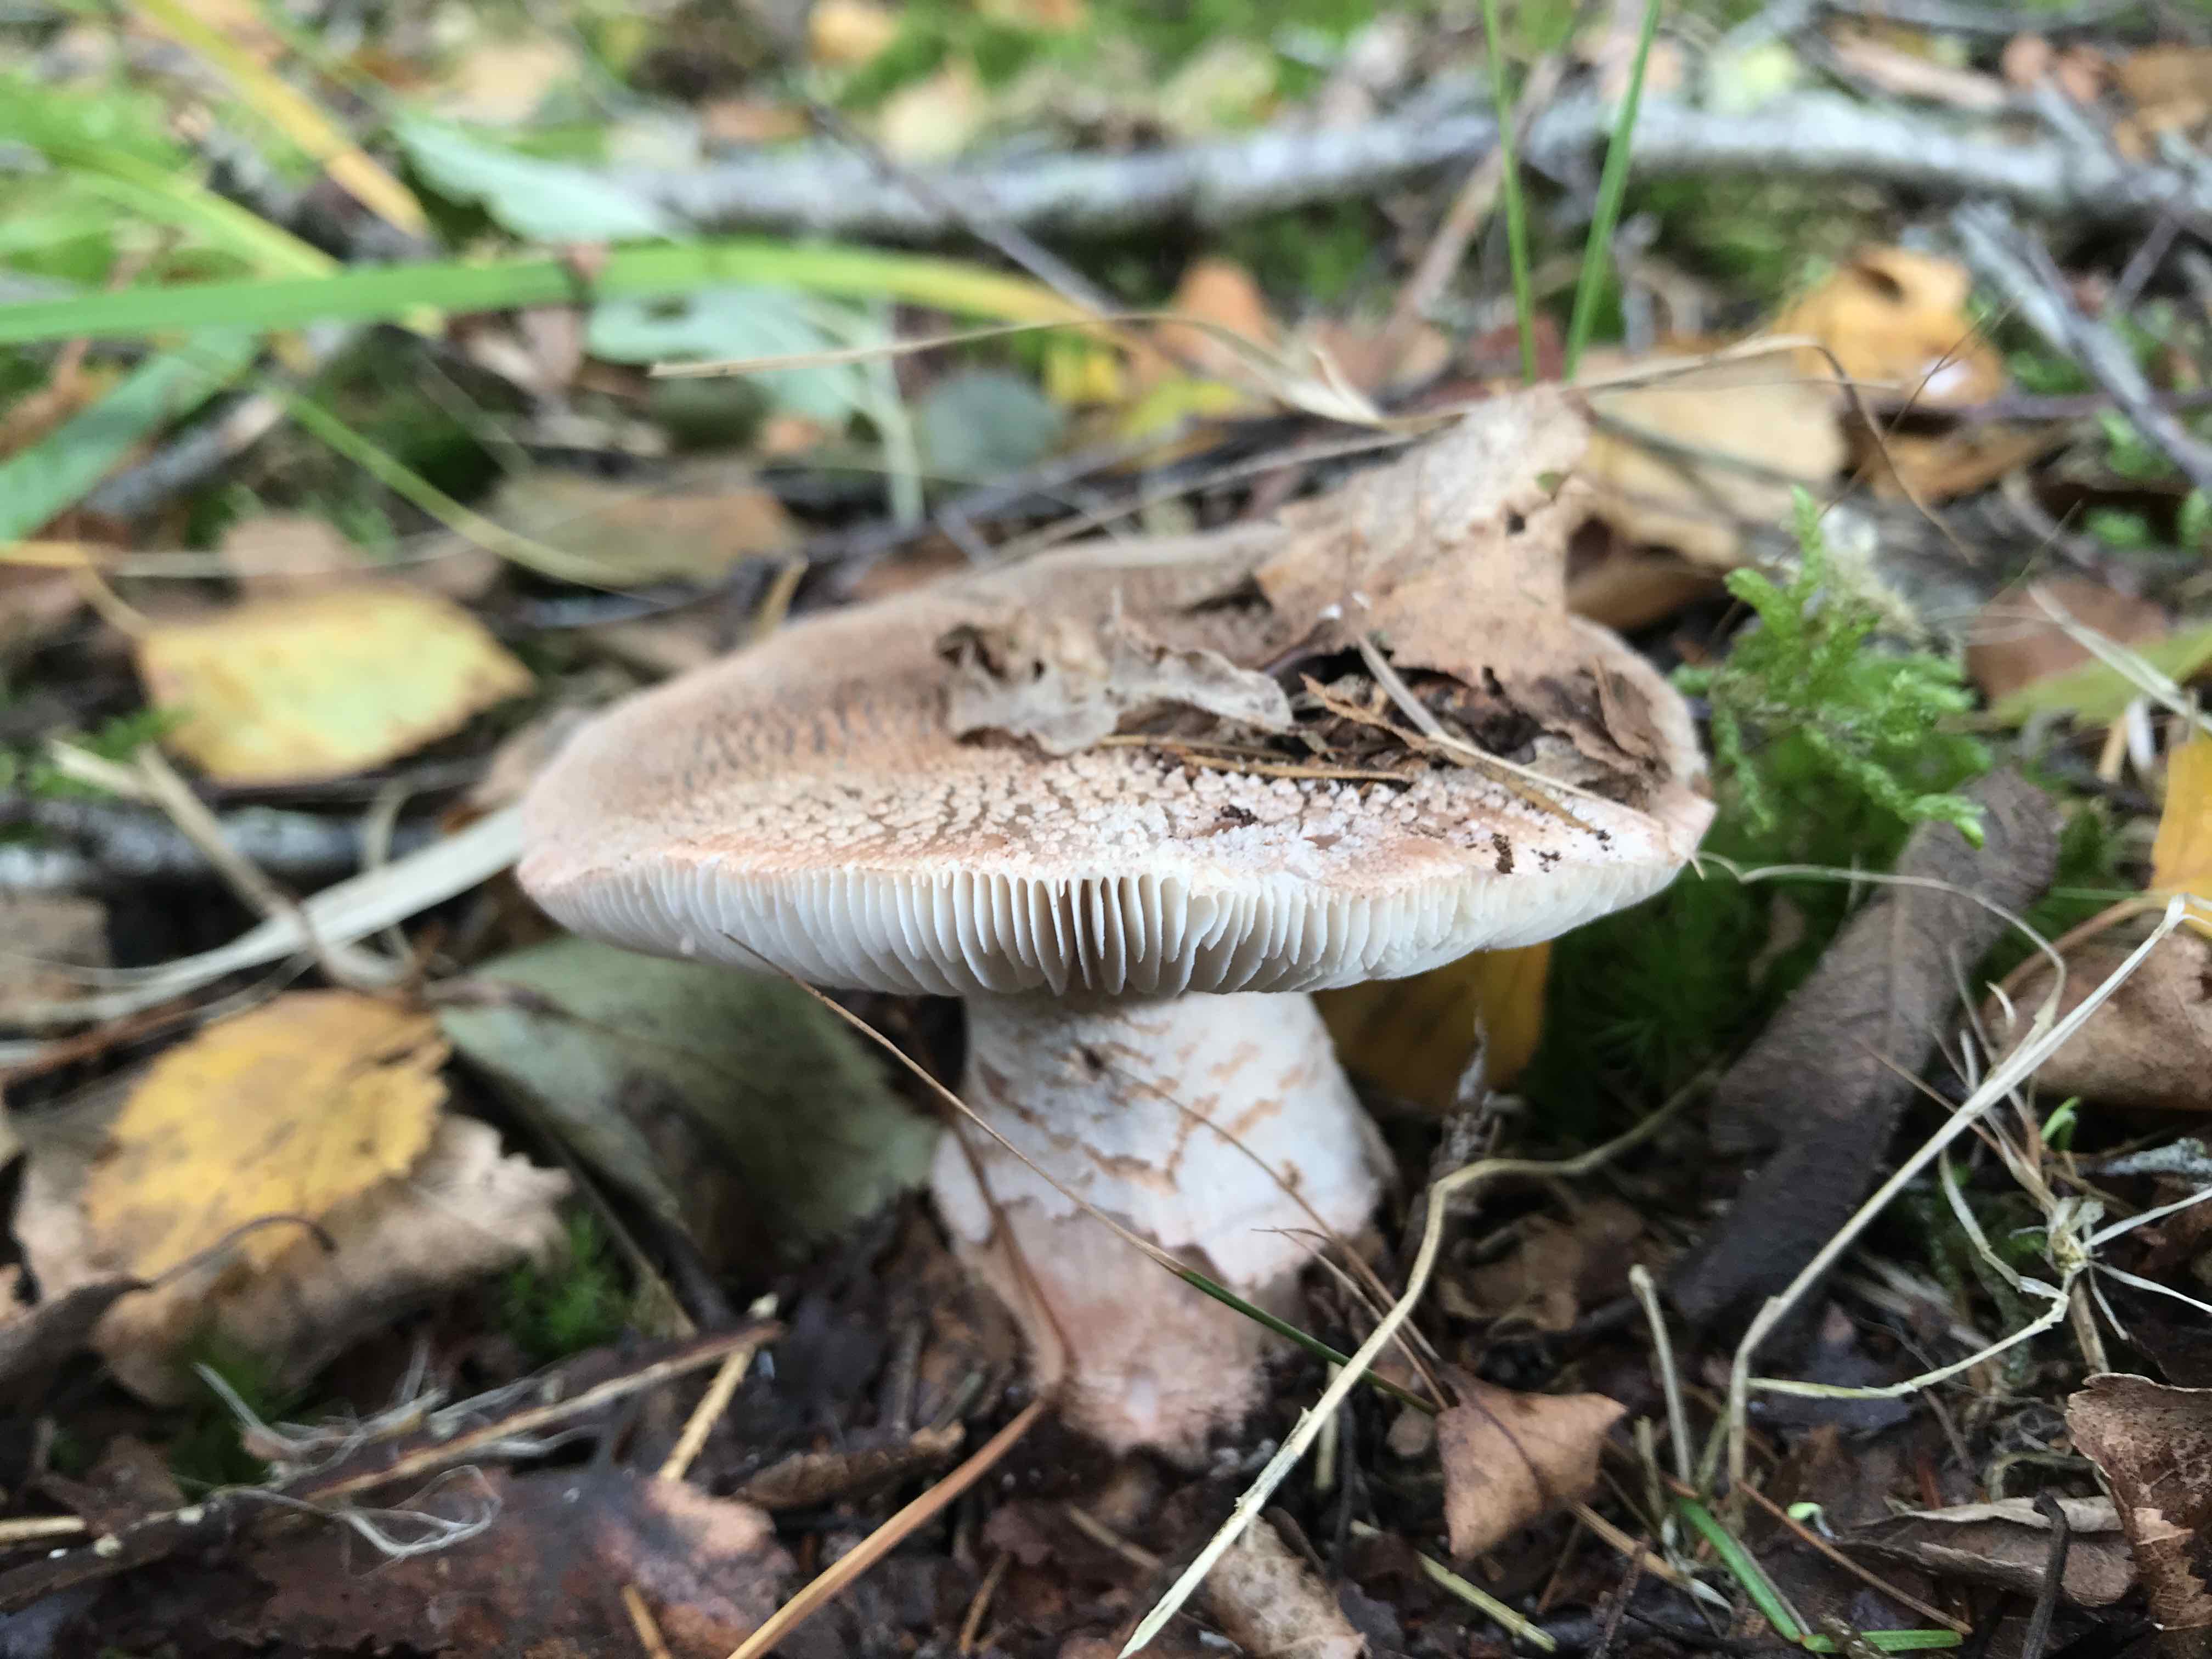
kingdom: Fungi
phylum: Basidiomycota
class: Agaricomycetes
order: Agaricales
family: Amanitaceae
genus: Amanita
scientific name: Amanita rubescens
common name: rødmende fluesvamp
